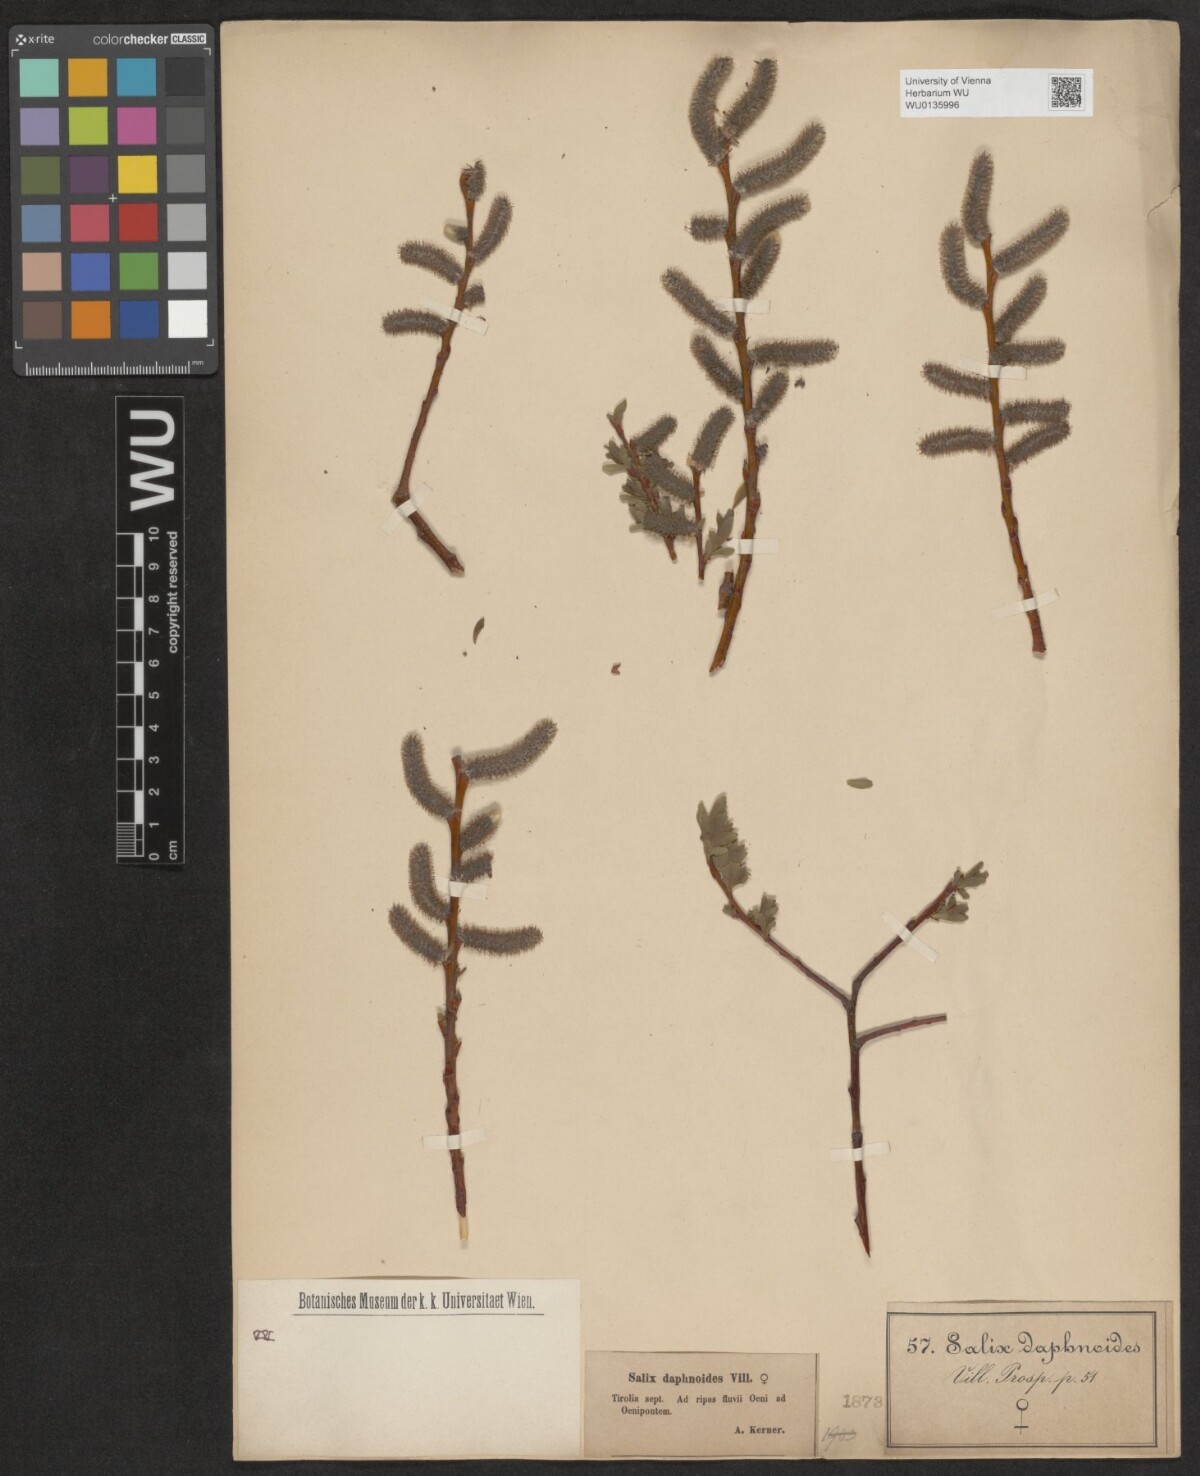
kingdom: Plantae
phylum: Tracheophyta
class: Magnoliopsida
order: Malpighiales
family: Salicaceae
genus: Salix
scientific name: Salix daphnoides
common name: European violet-willow
